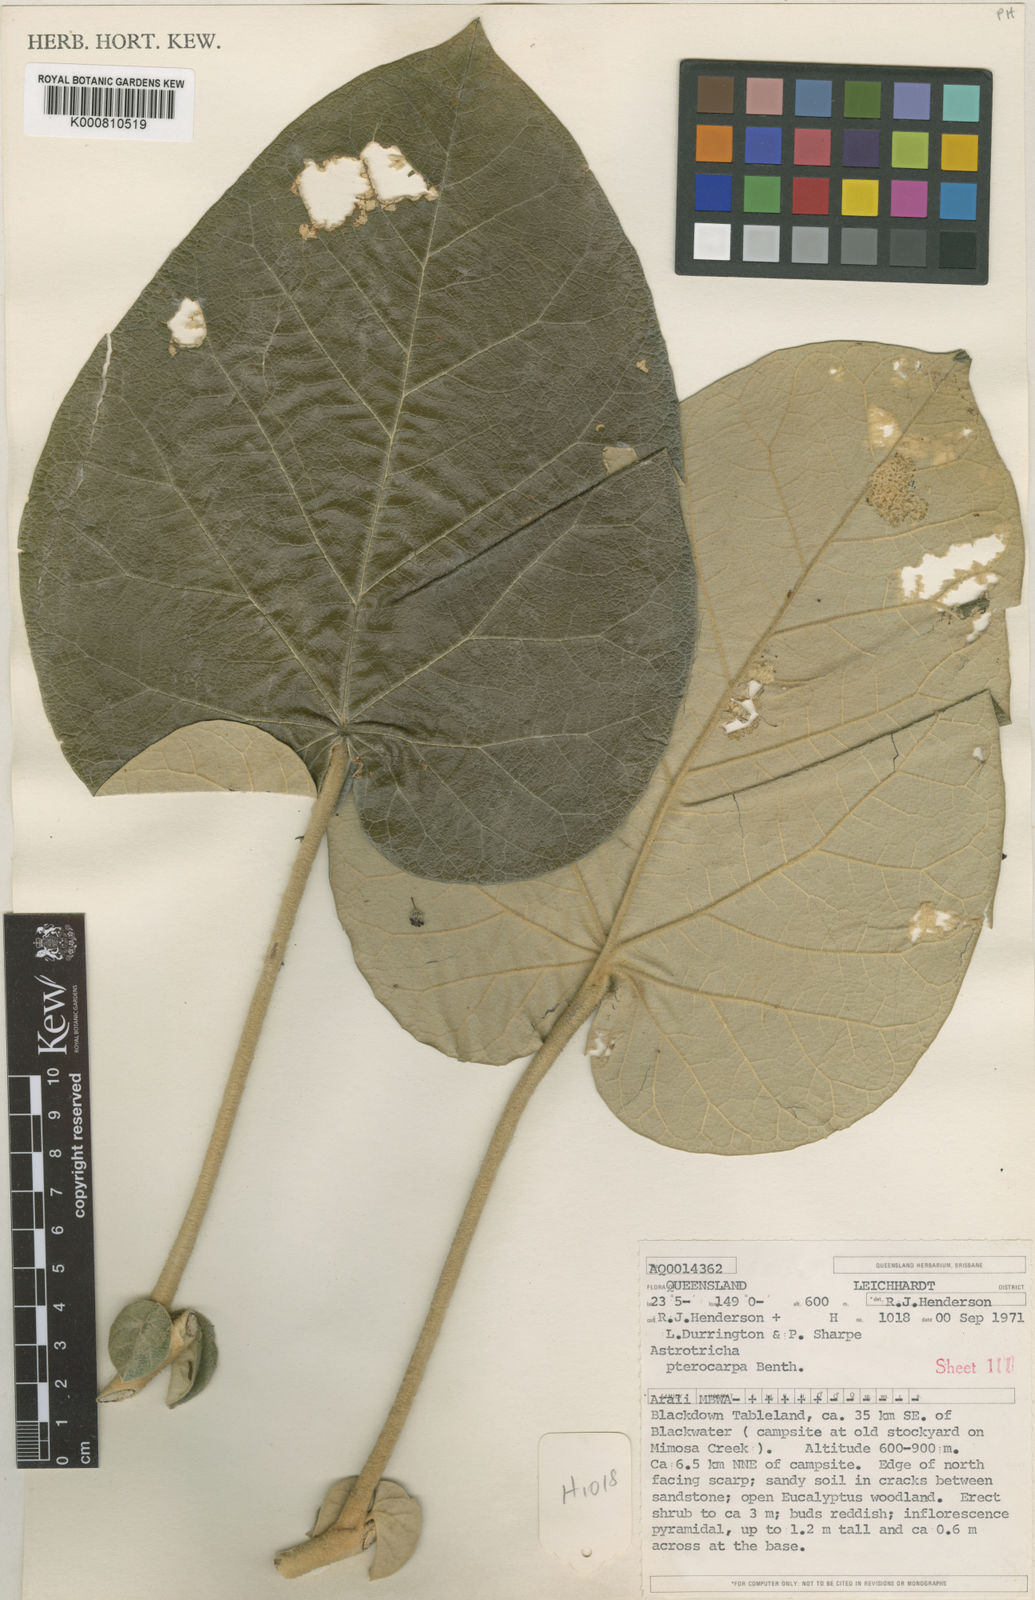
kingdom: Plantae
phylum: Tracheophyta
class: Magnoliopsida
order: Apiales
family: Araliaceae
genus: Astrotricha
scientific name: Astrotricha cordata
